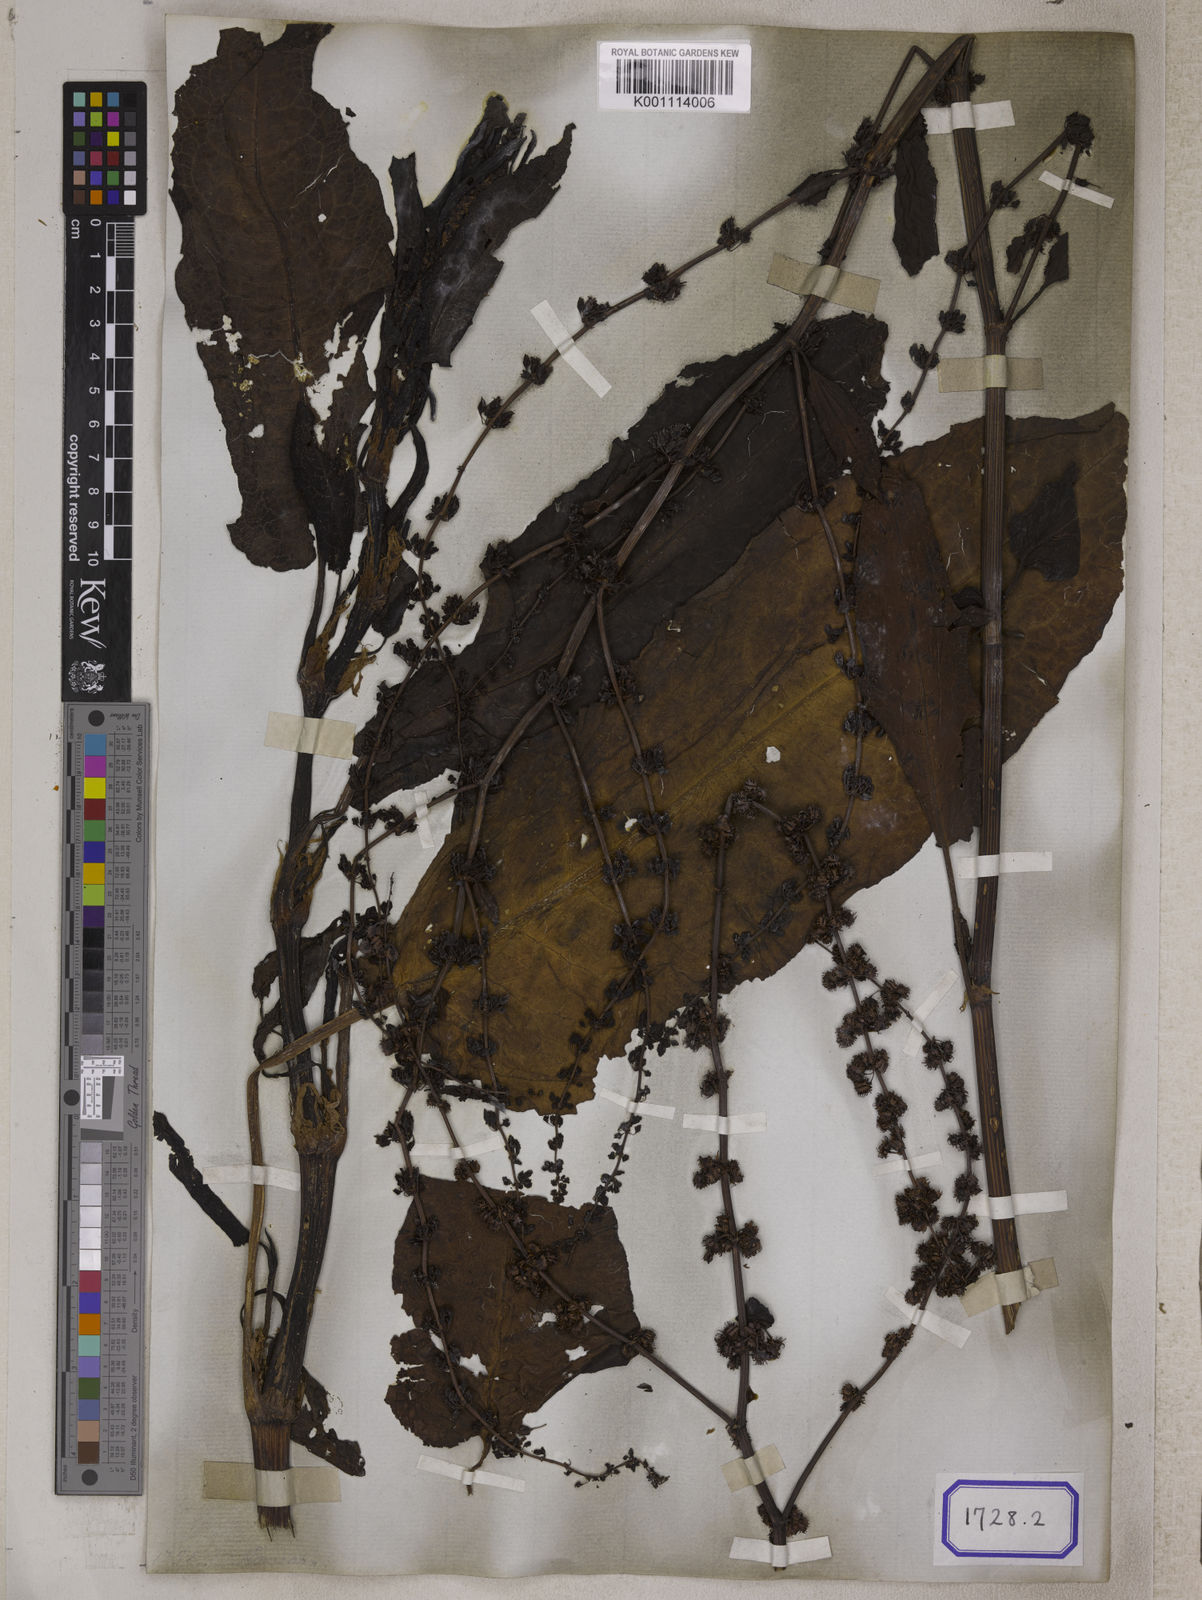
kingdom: Plantae
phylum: Tracheophyta
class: Magnoliopsida
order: Caryophyllales
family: Polygonaceae
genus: Rumex
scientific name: Rumex nepalensis
